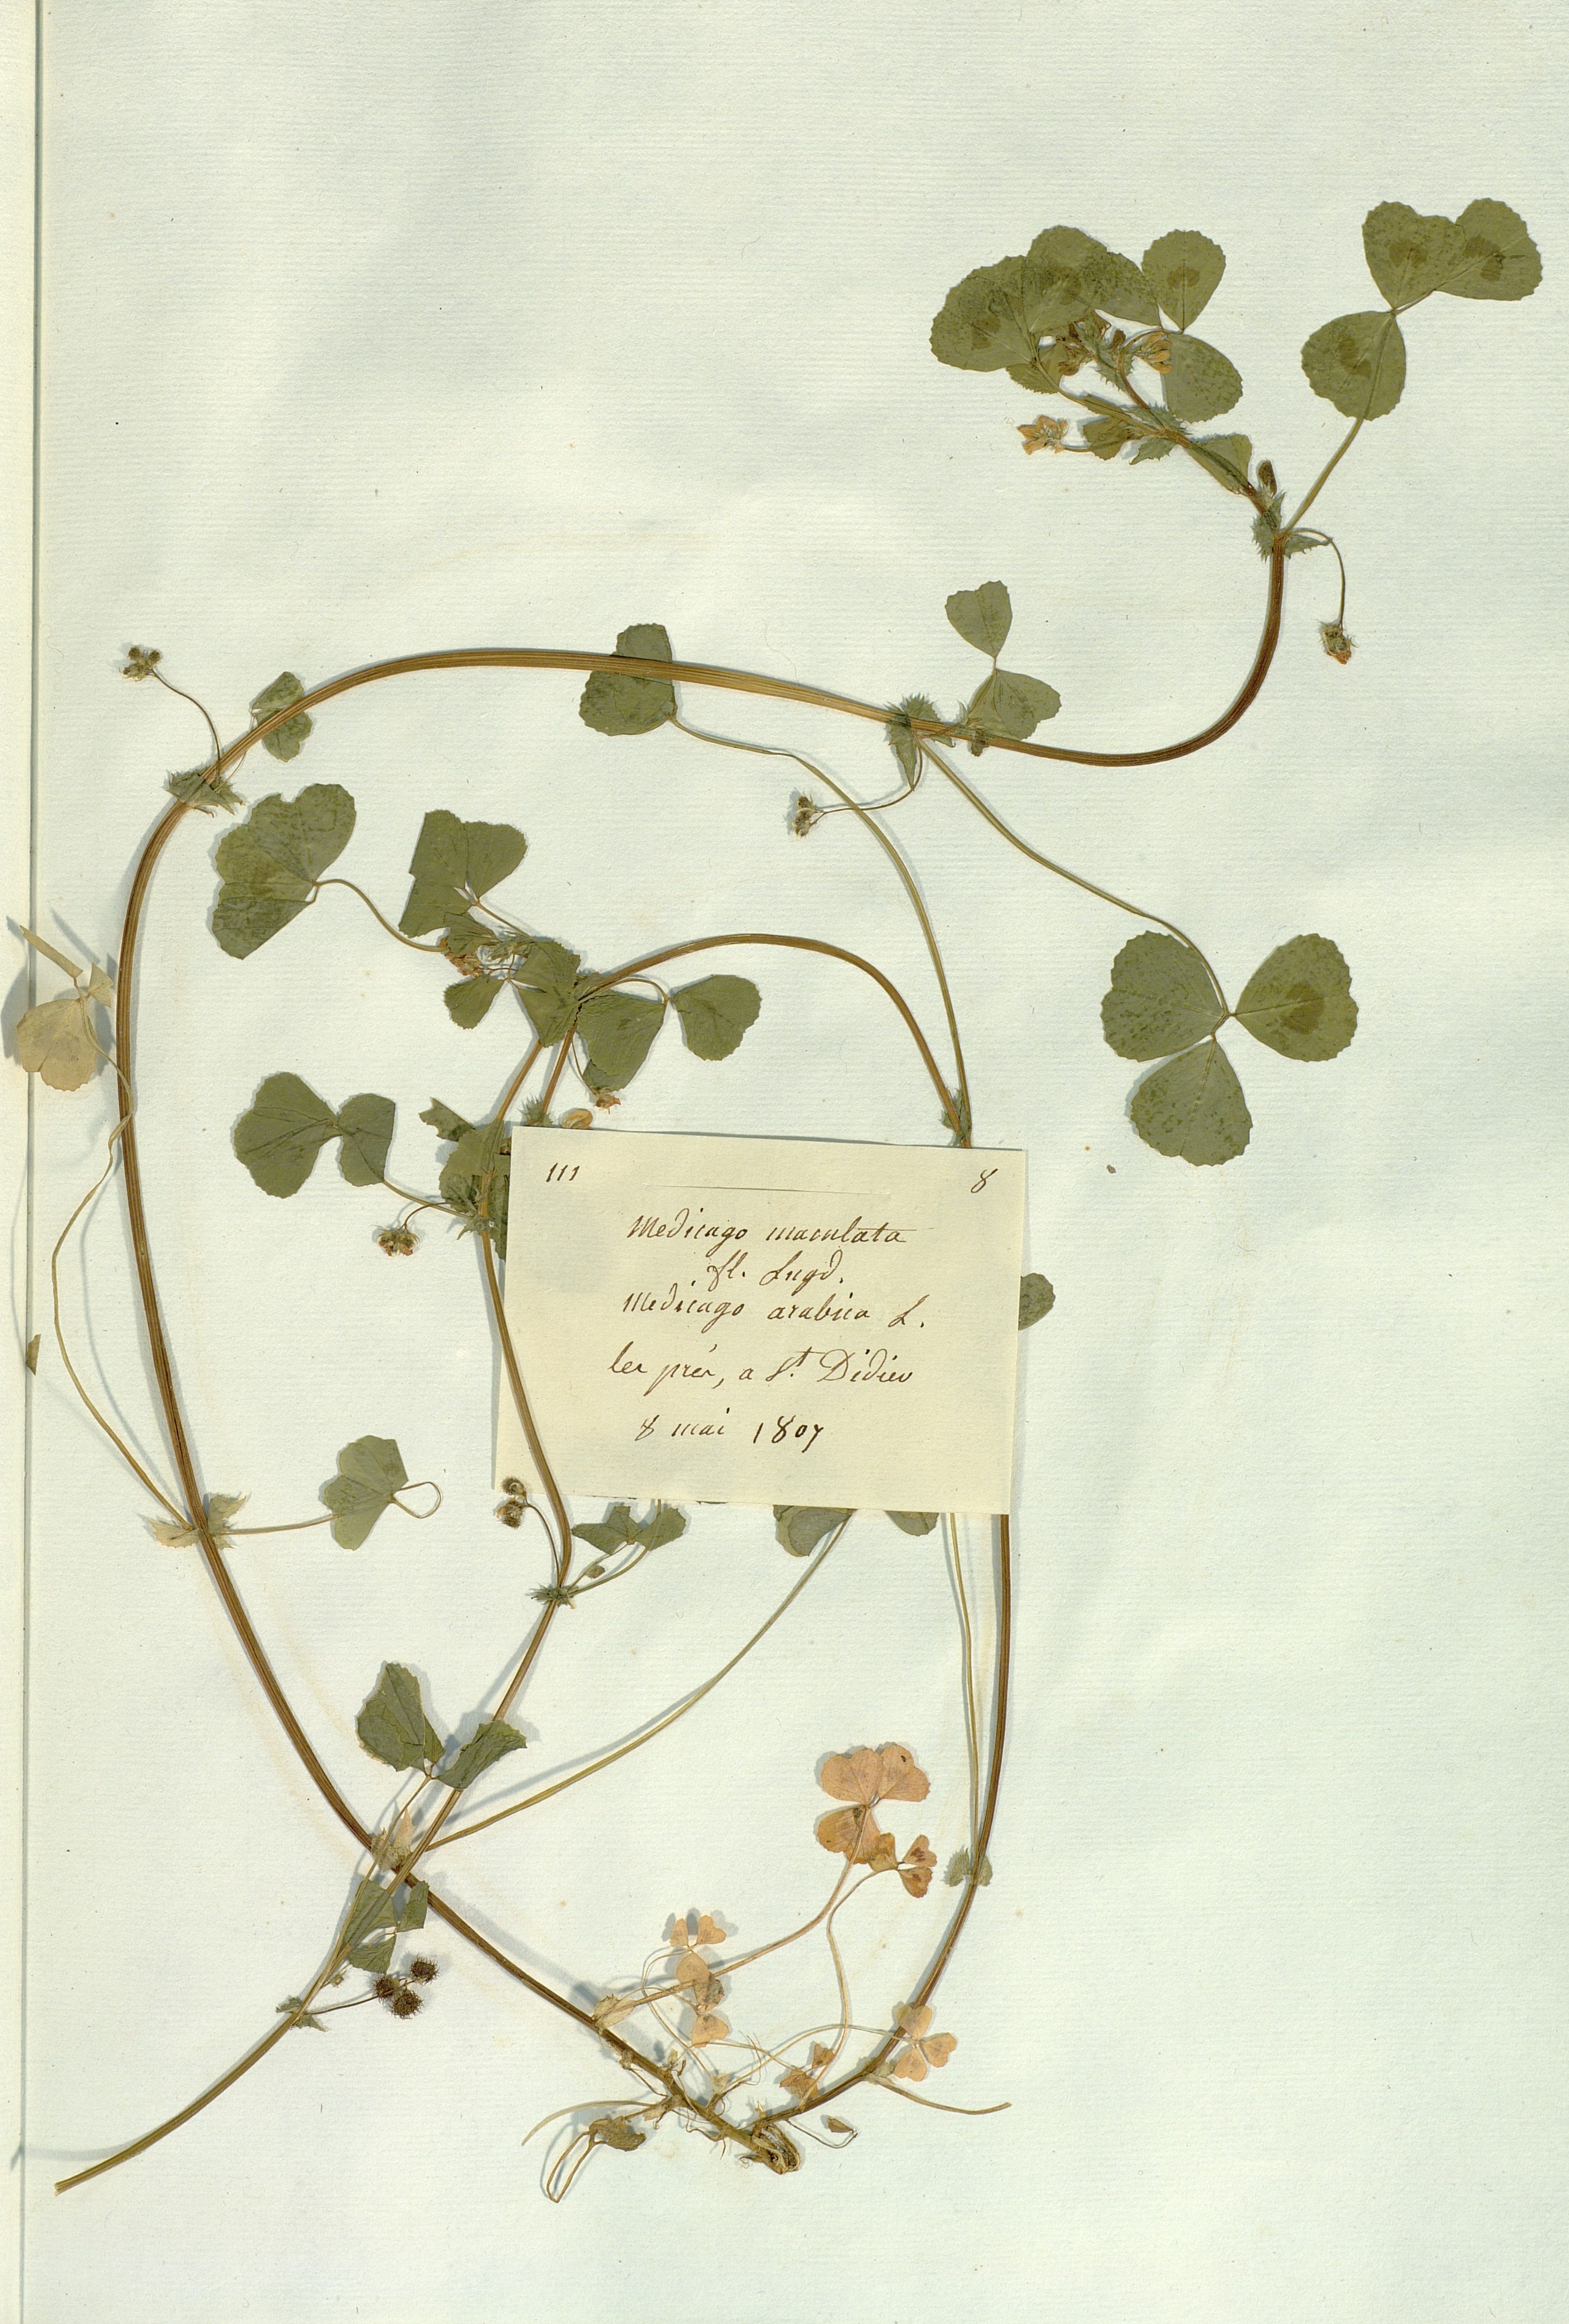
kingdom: Plantae
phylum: Tracheophyta
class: Magnoliopsida
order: Fabales
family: Fabaceae
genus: Medicago
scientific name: Medicago arabica
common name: Spotted medick
